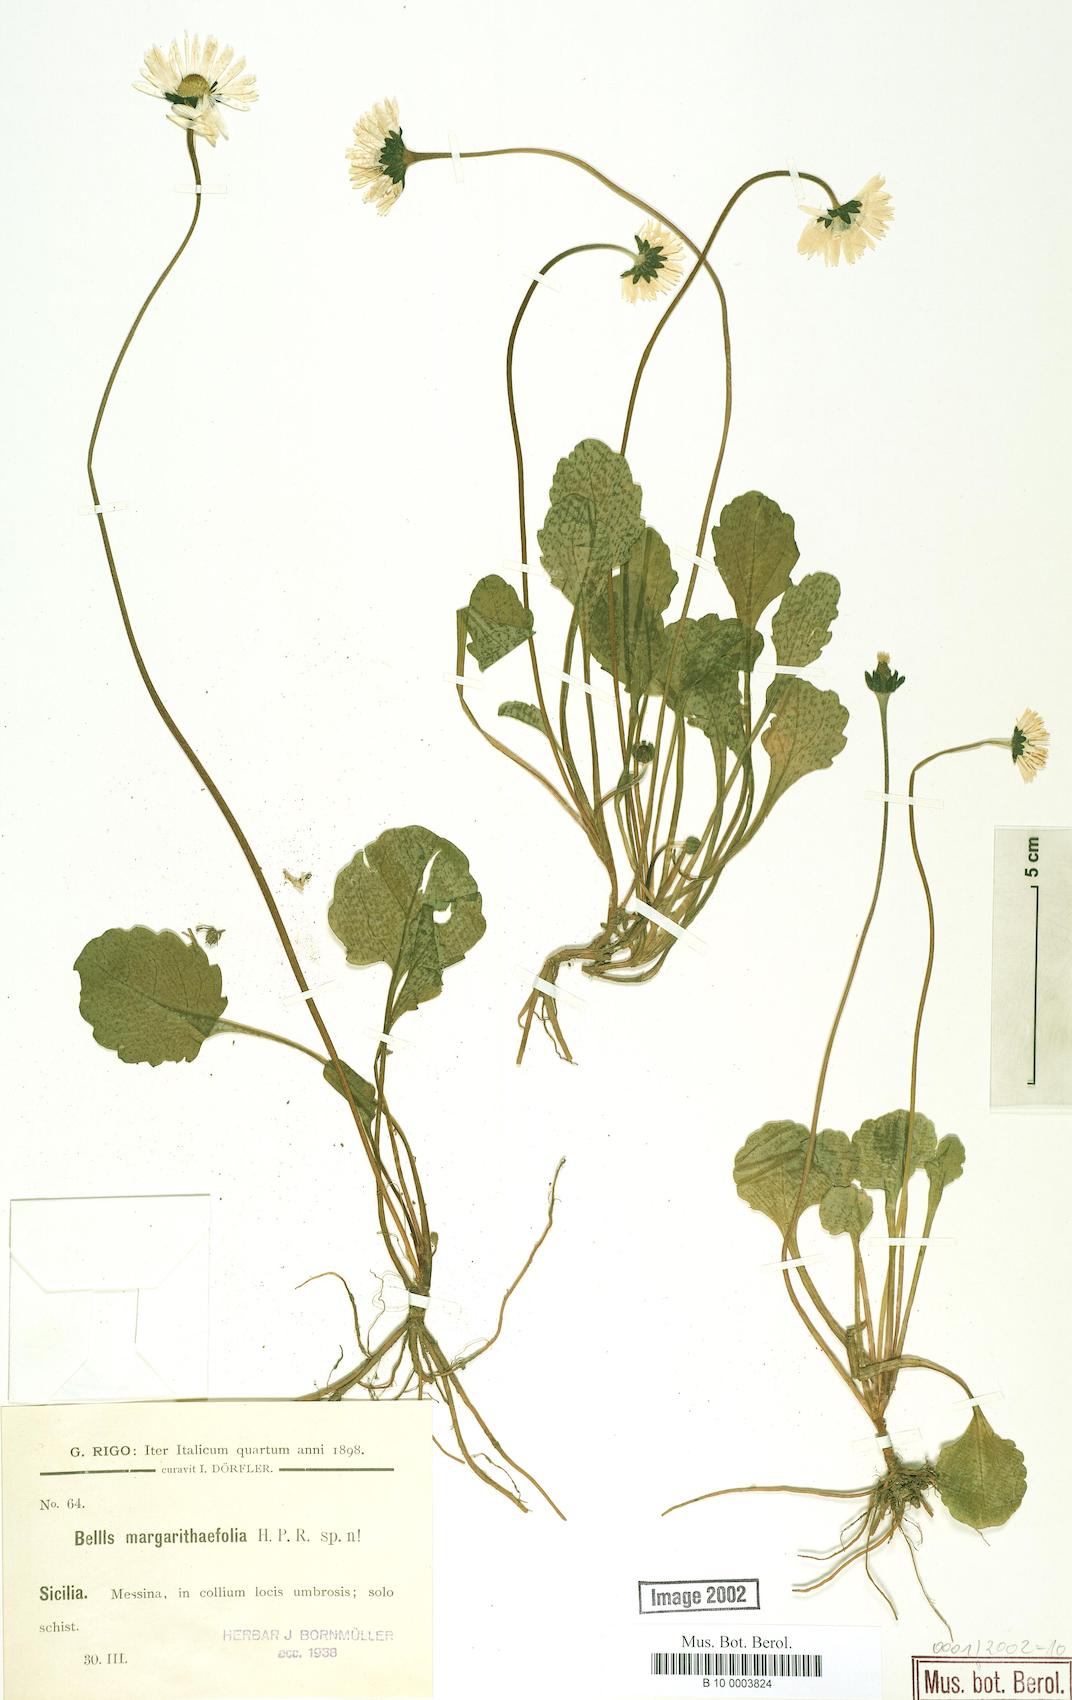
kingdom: Plantae
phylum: Tracheophyta
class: Magnoliopsida
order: Asterales
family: Asteraceae
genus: Bellis
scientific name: Bellis margaritifolia
